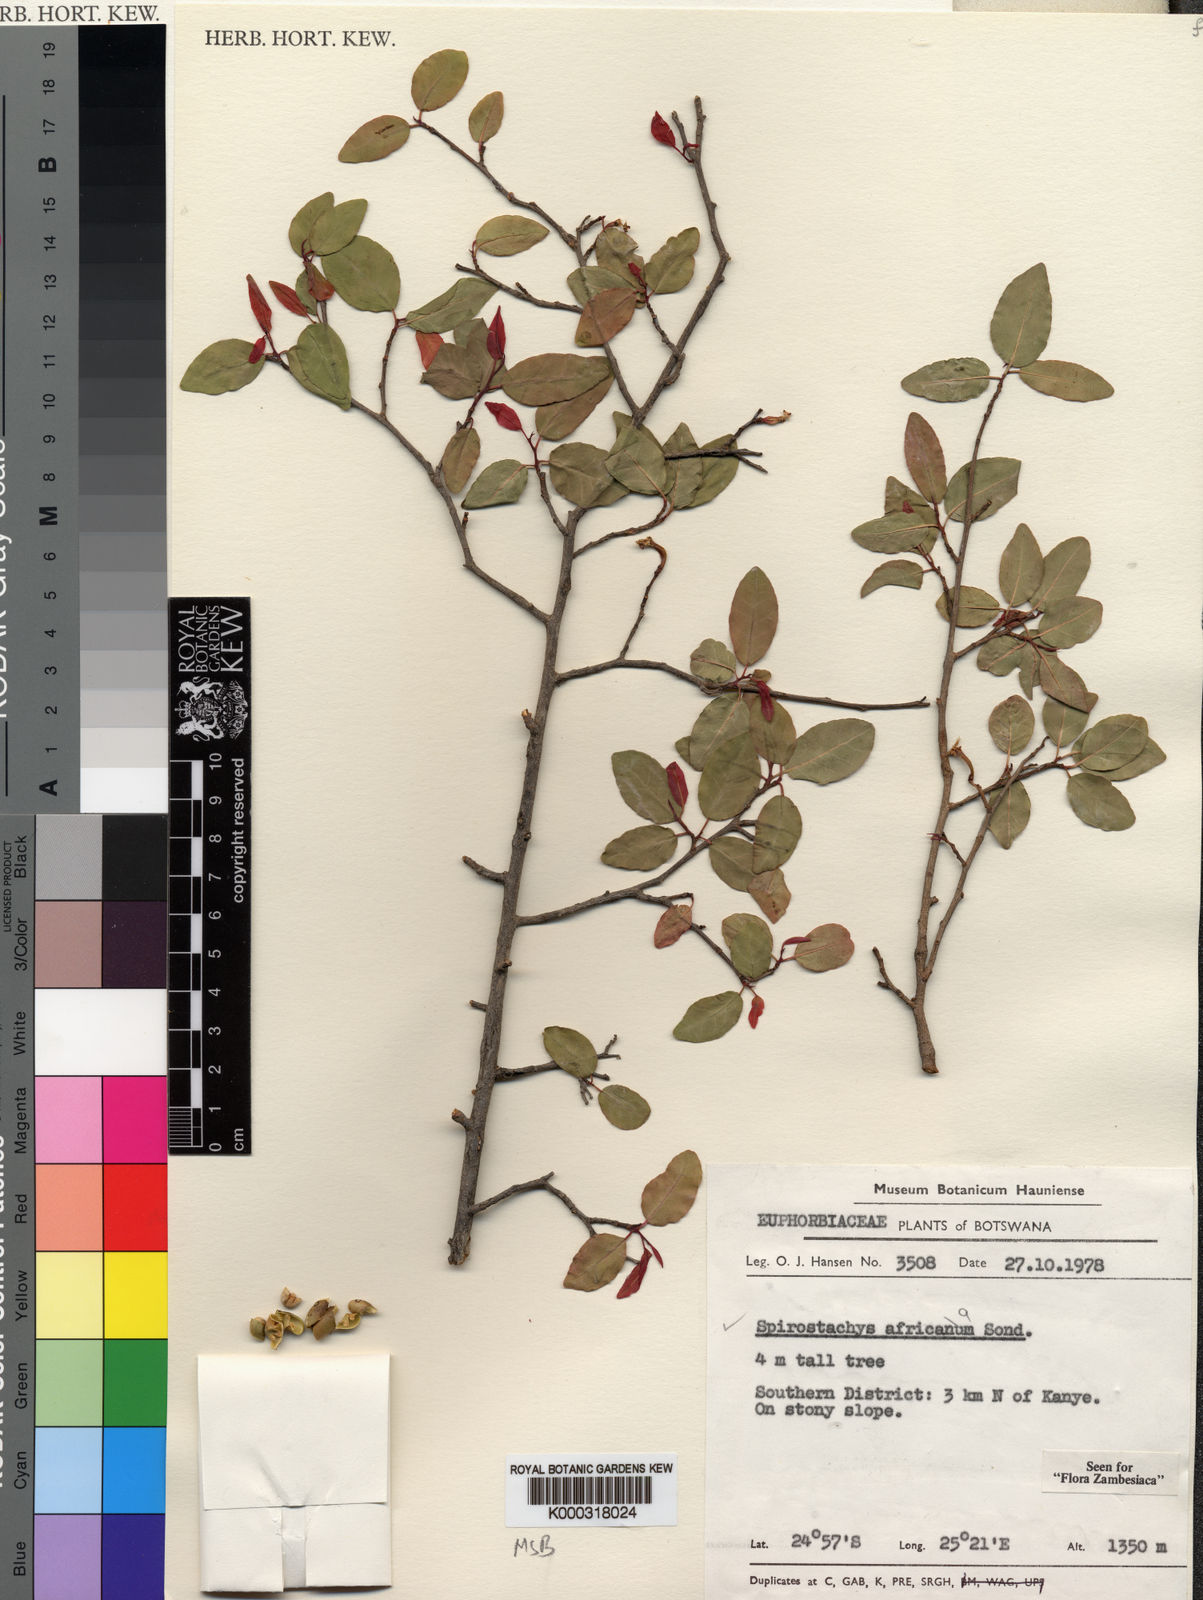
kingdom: Plantae
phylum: Tracheophyta
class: Magnoliopsida
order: Malpighiales
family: Euphorbiaceae
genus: Spirostachys
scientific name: Spirostachys africana
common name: Tamboti
